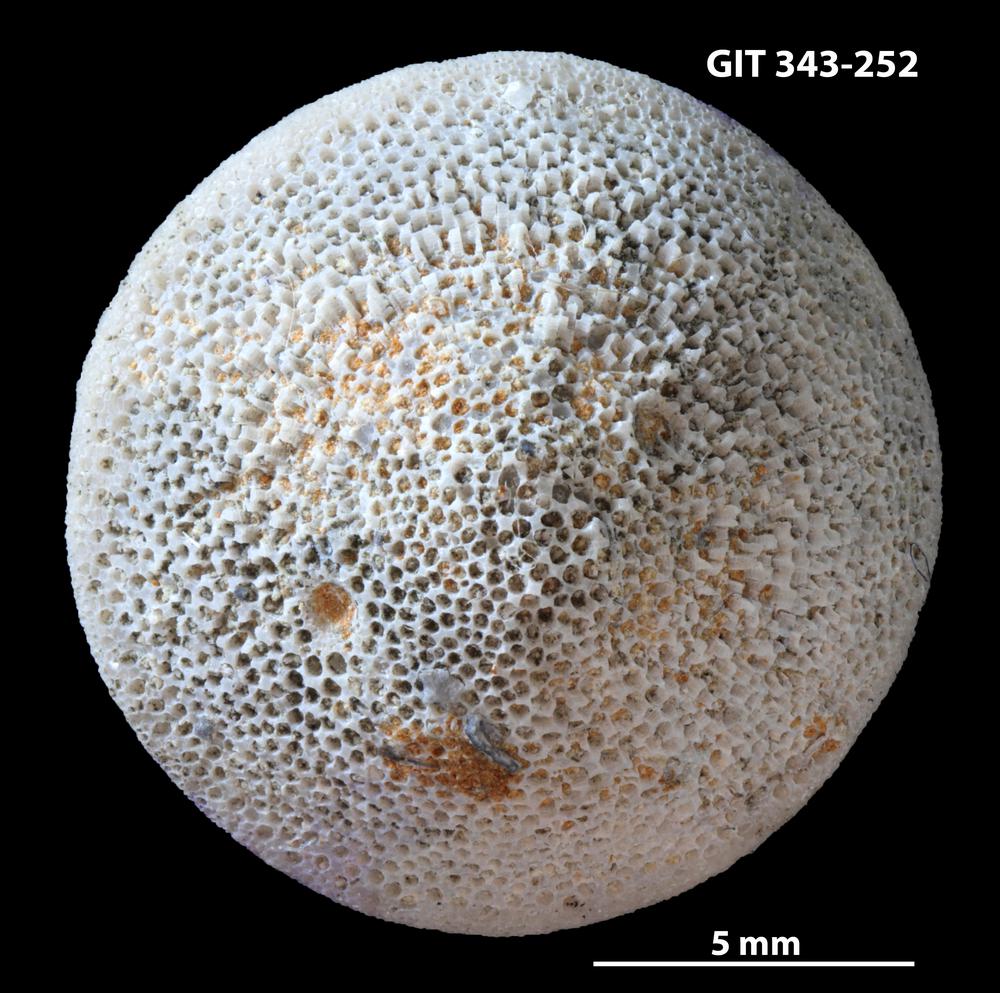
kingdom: Animalia
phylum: Bryozoa
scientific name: Bryozoa
